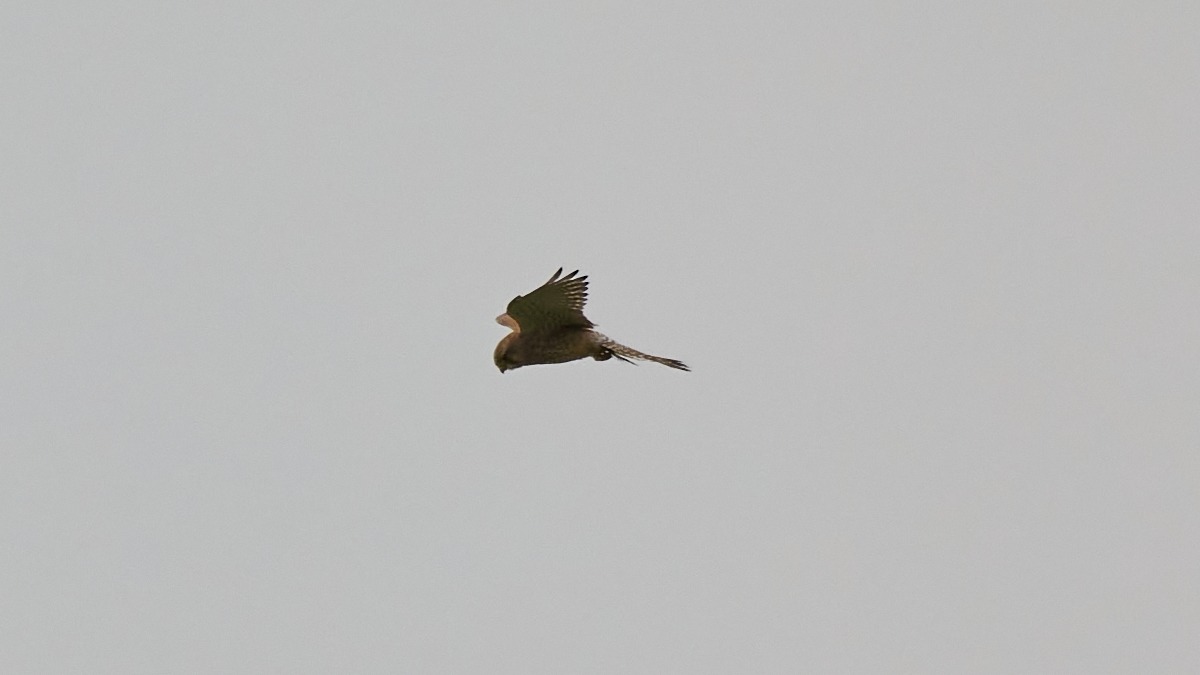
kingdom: Animalia
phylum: Chordata
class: Aves
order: Falconiformes
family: Falconidae
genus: Falco
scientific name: Falco tinnunculus
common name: Tårnfalk
